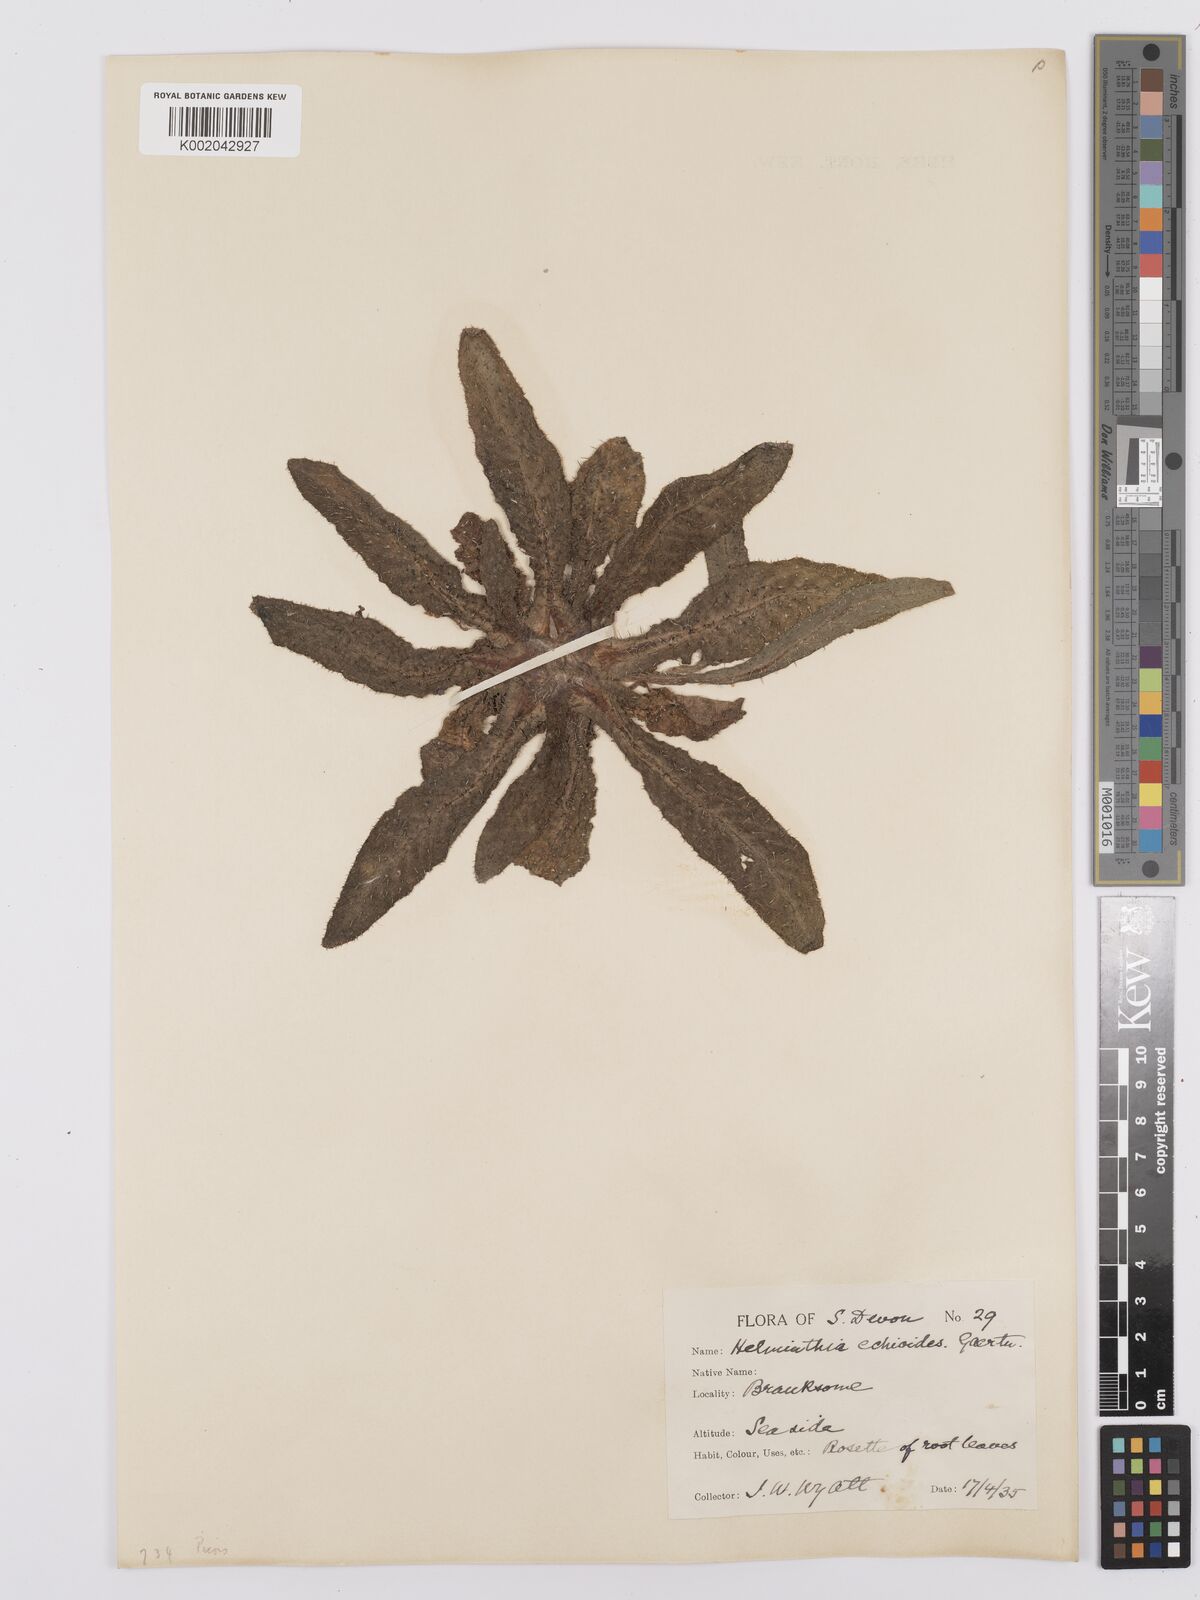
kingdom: Plantae
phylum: Tracheophyta
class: Magnoliopsida
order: Asterales
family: Asteraceae
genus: Helminthotheca
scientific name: Helminthotheca echioides
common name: Ox-tongue
